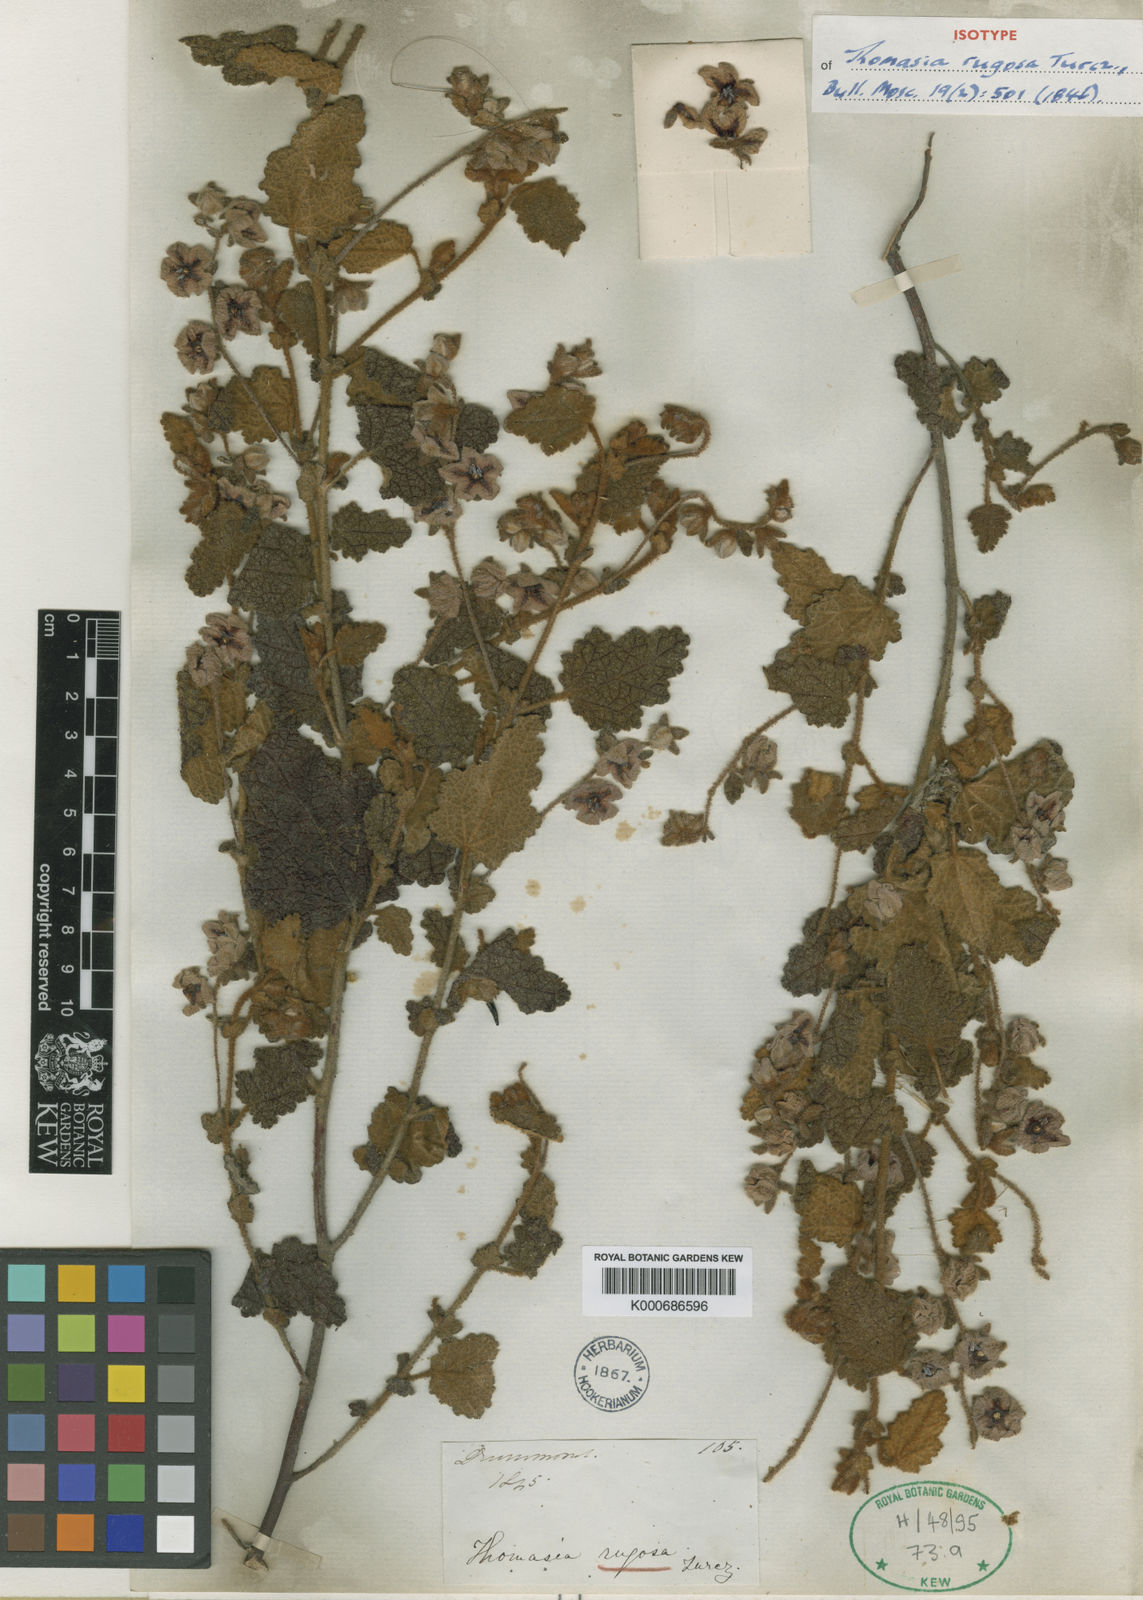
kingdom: Plantae
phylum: Tracheophyta
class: Magnoliopsida
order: Malvales
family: Malvaceae
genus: Thomasia
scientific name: Thomasia rugosa
